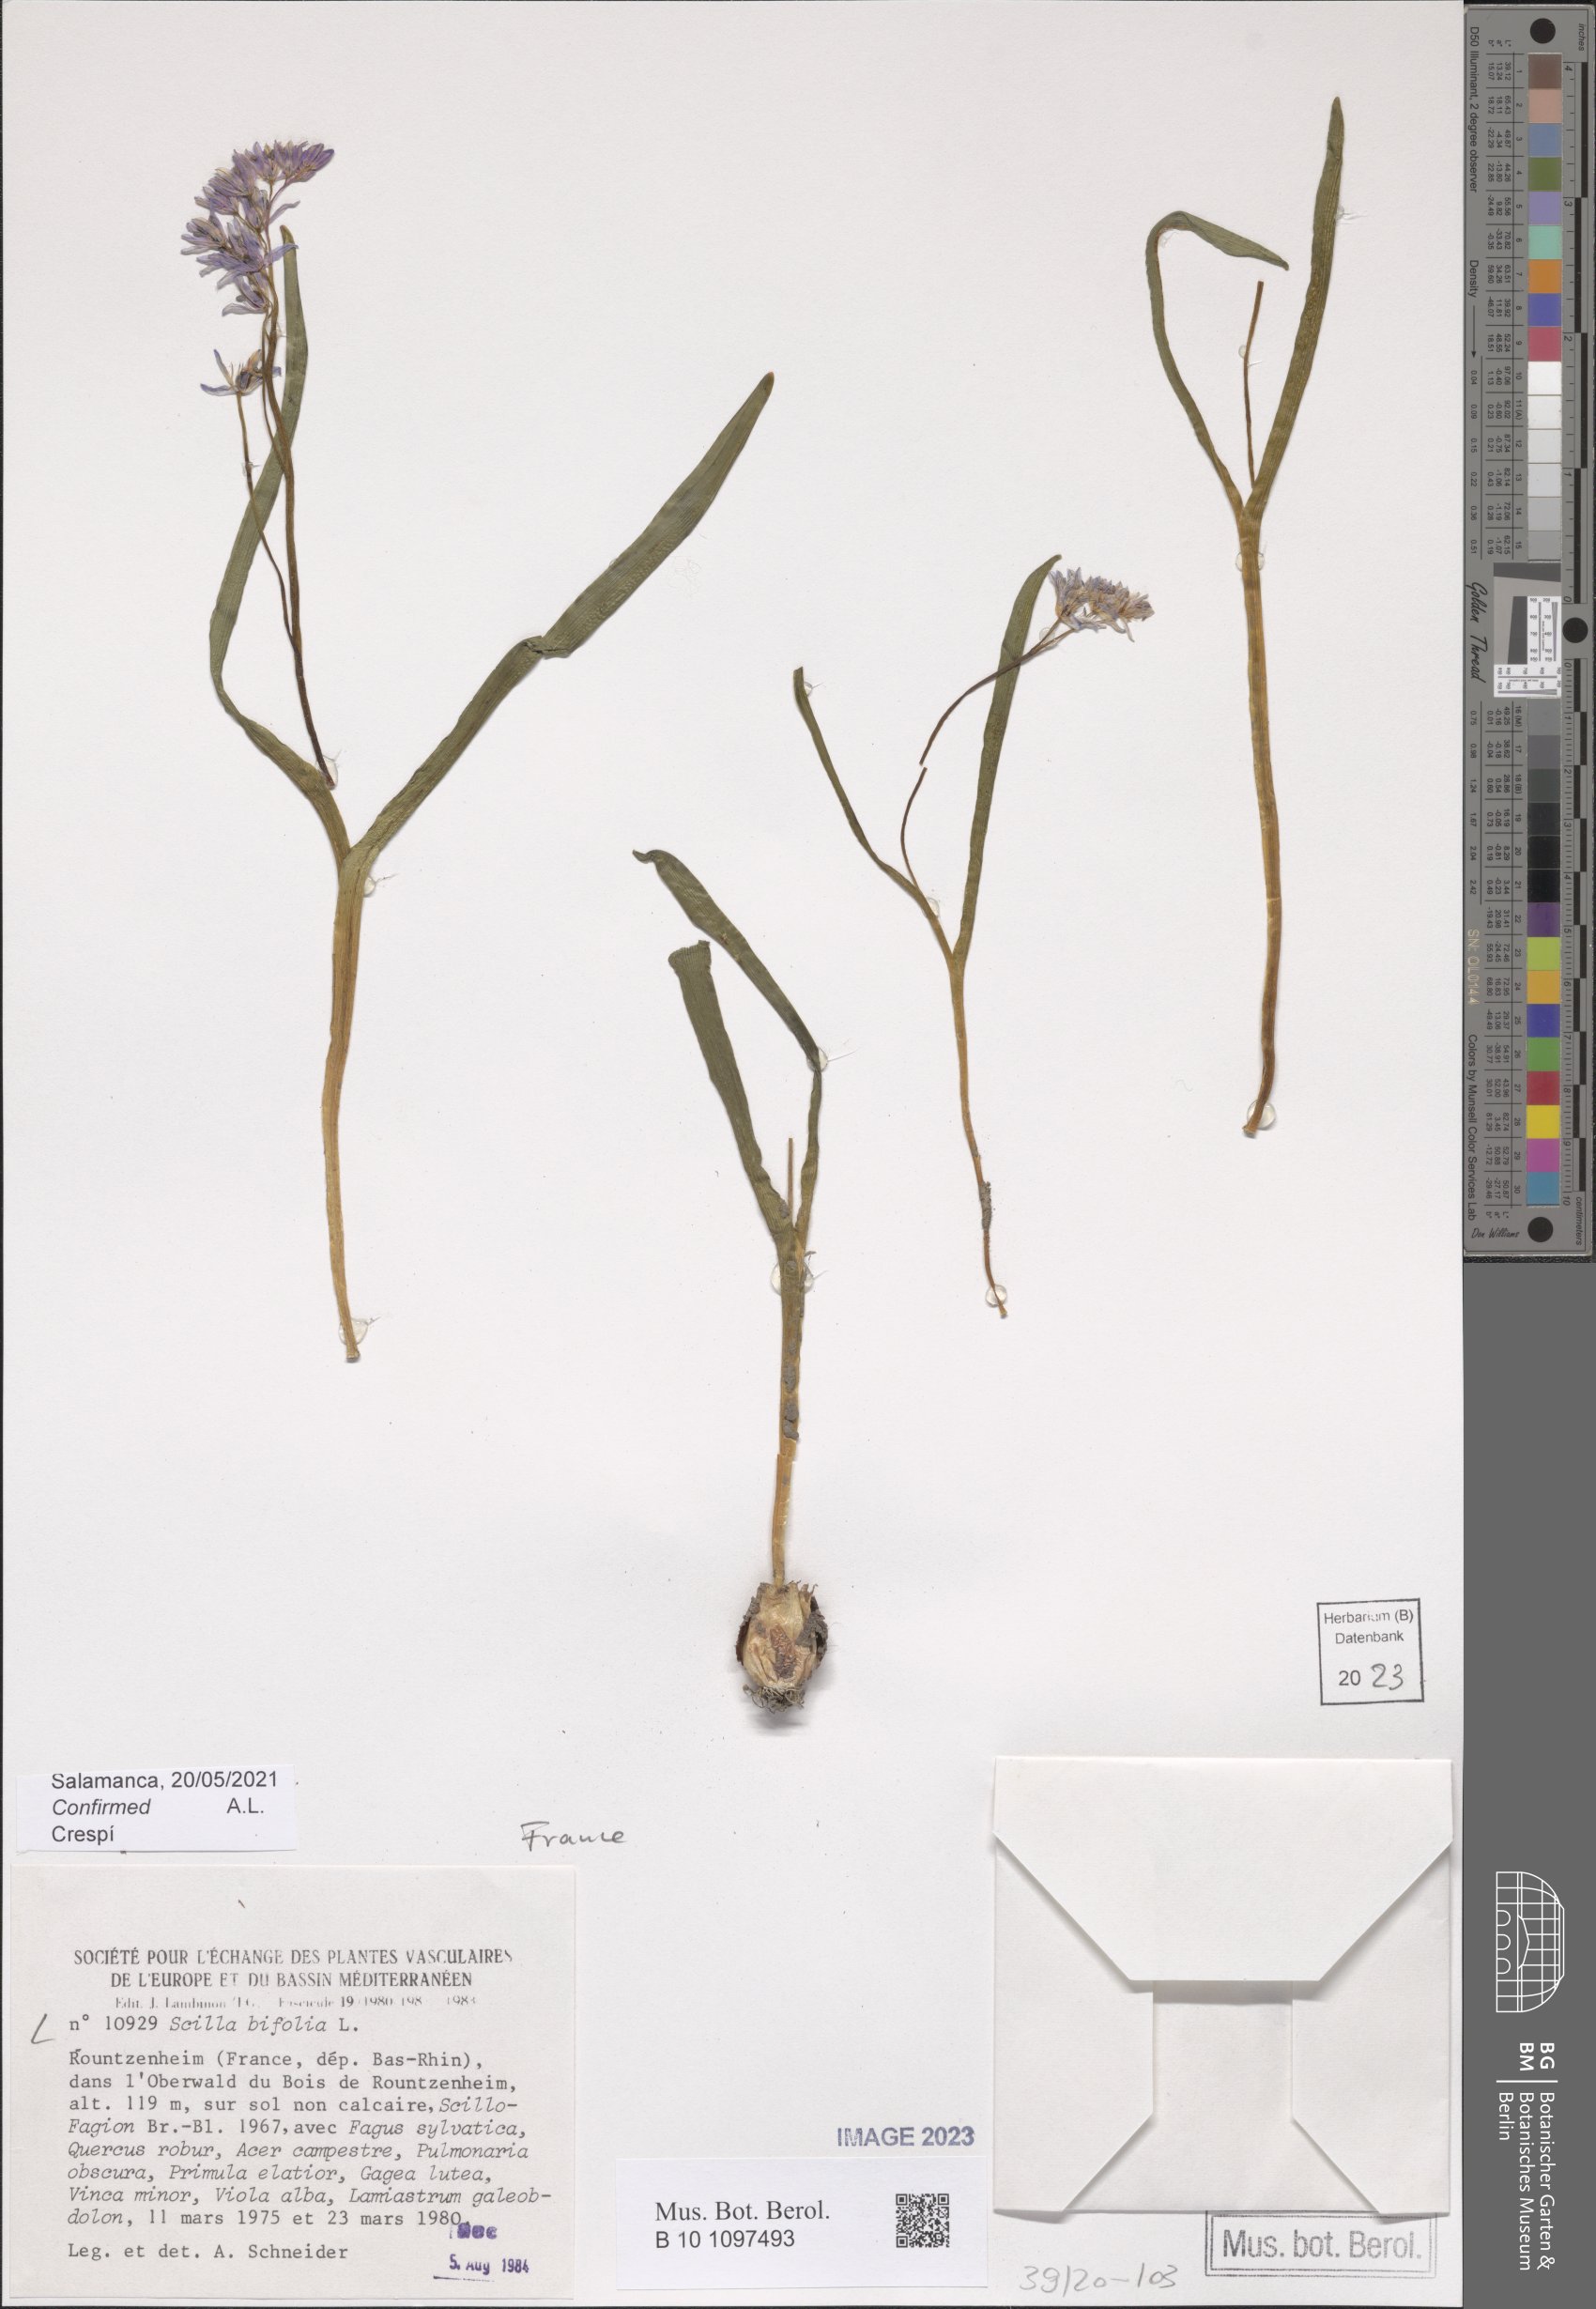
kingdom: Plantae
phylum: Tracheophyta
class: Liliopsida
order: Asparagales
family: Asparagaceae
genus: Scilla
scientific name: Scilla bifolia
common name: Alpine squill
